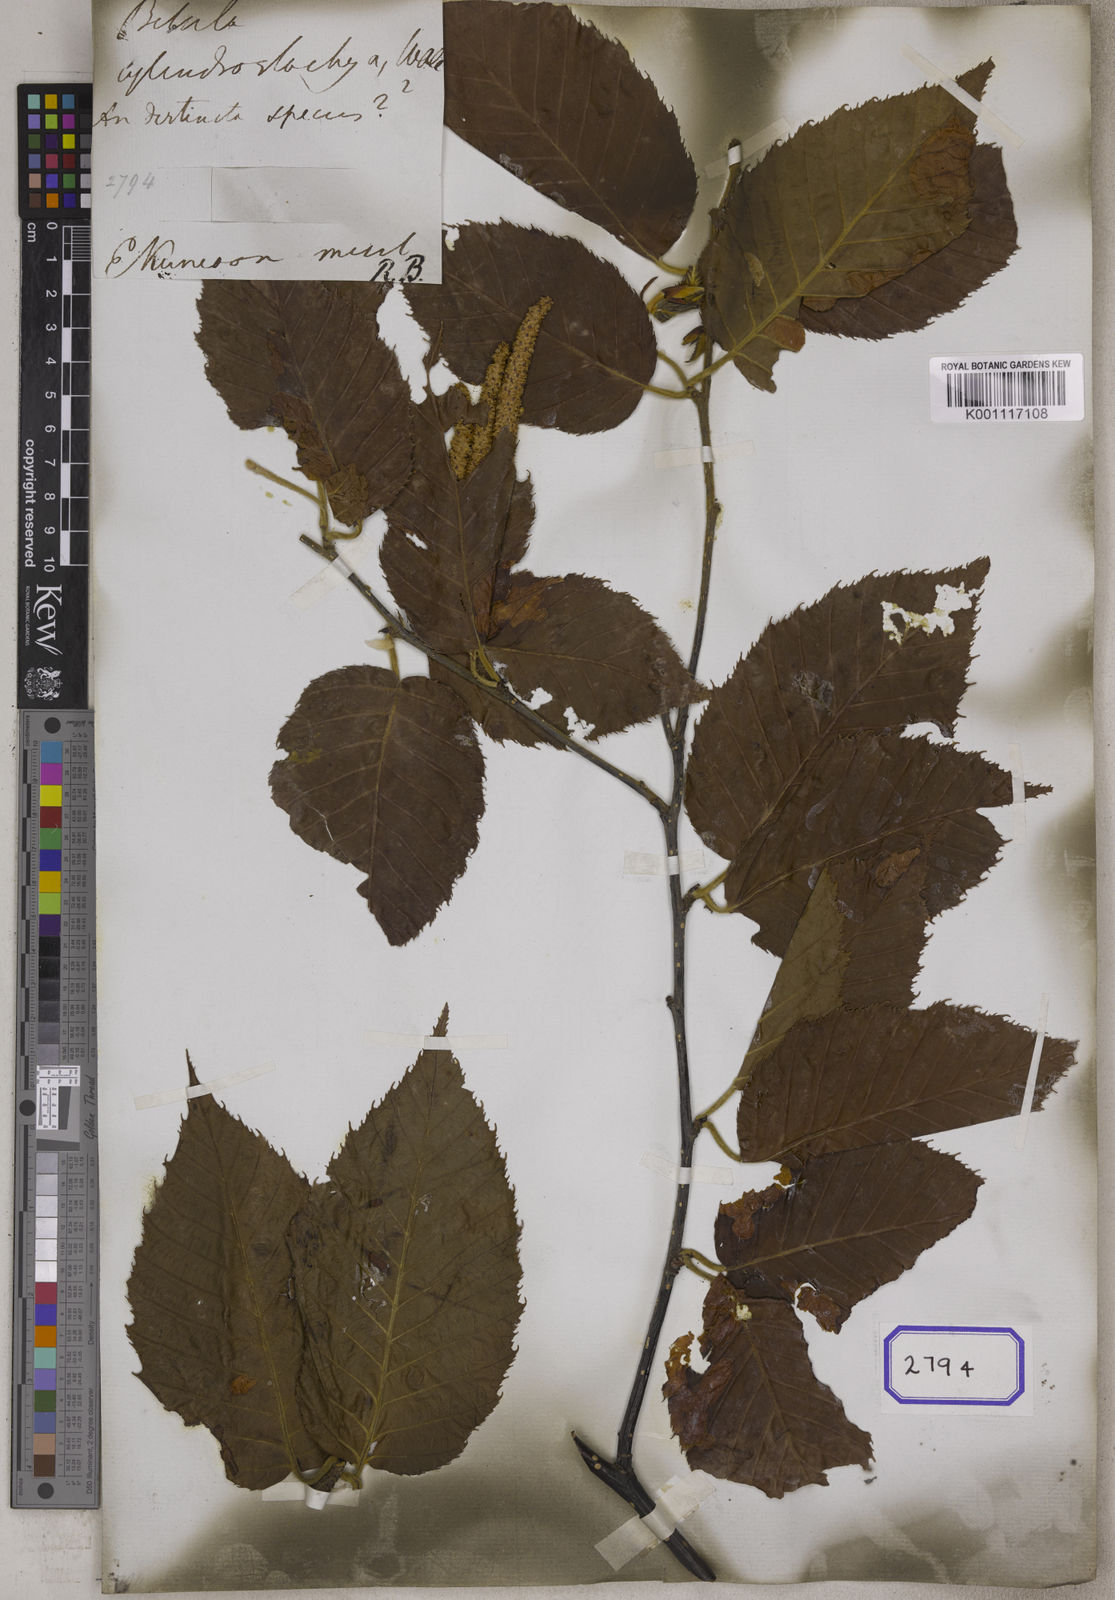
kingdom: Plantae
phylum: Tracheophyta
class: Magnoliopsida
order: Fagales
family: Betulaceae
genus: Betula
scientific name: Betula cylindrostachya
